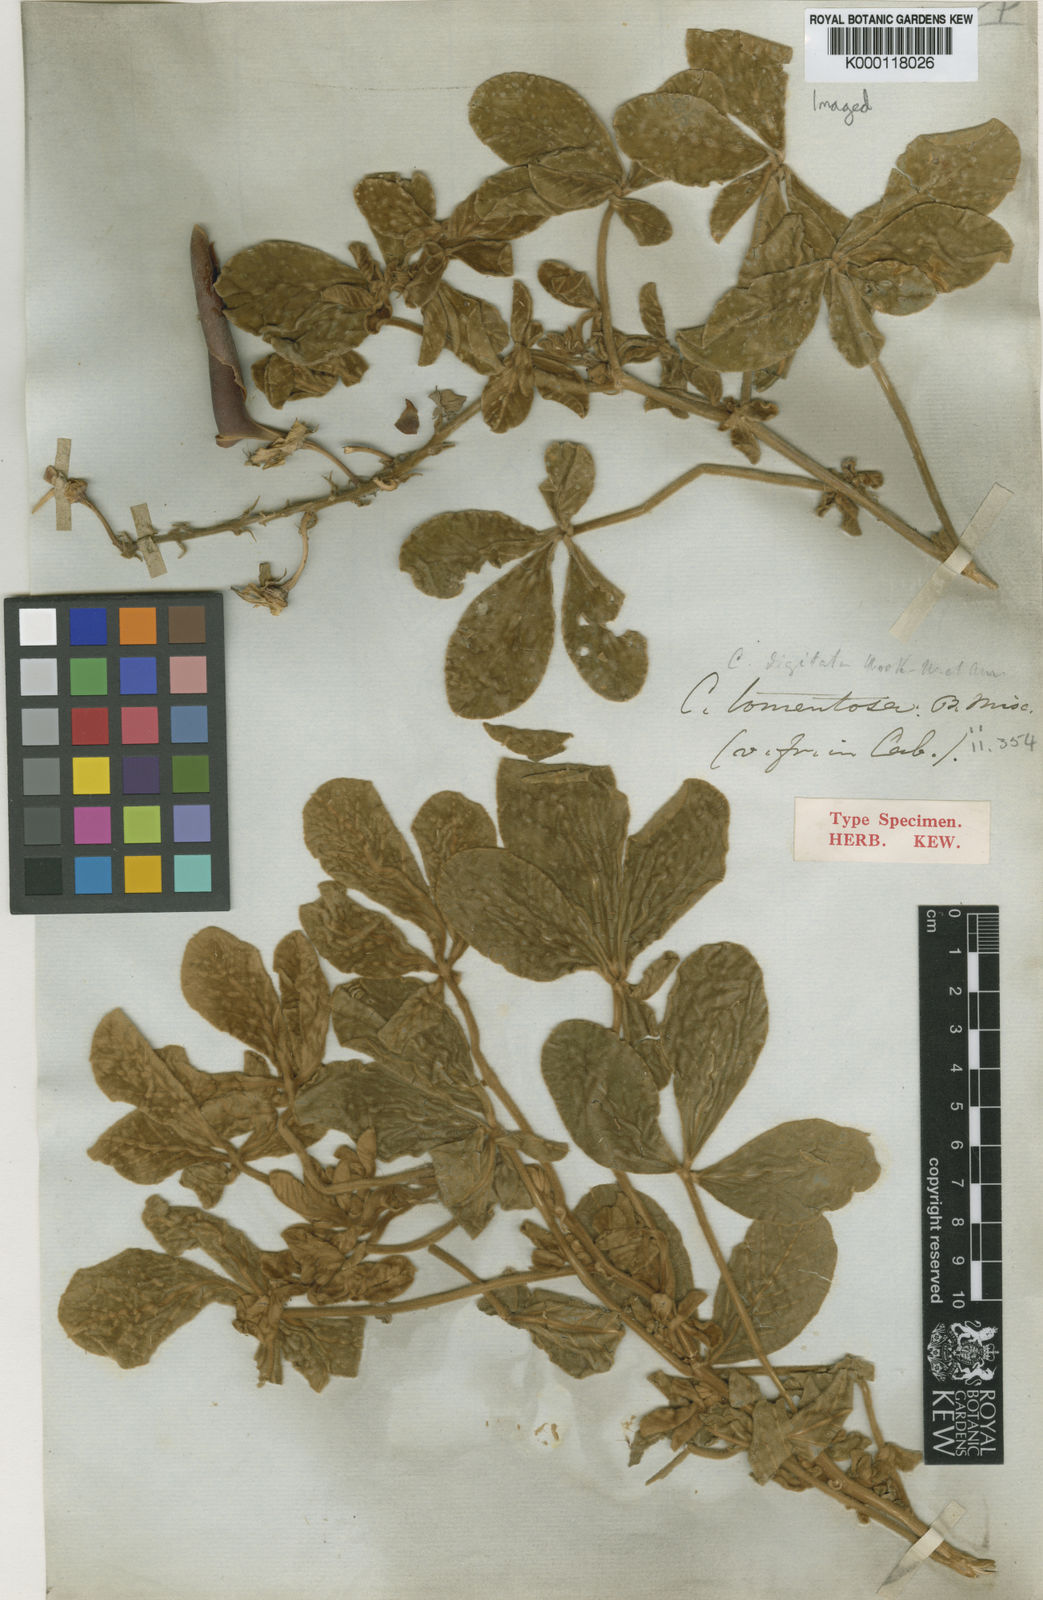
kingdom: Plantae
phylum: Tracheophyta
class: Magnoliopsida
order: Fabales
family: Fabaceae
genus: Crotalaria
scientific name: Crotalaria digitata
